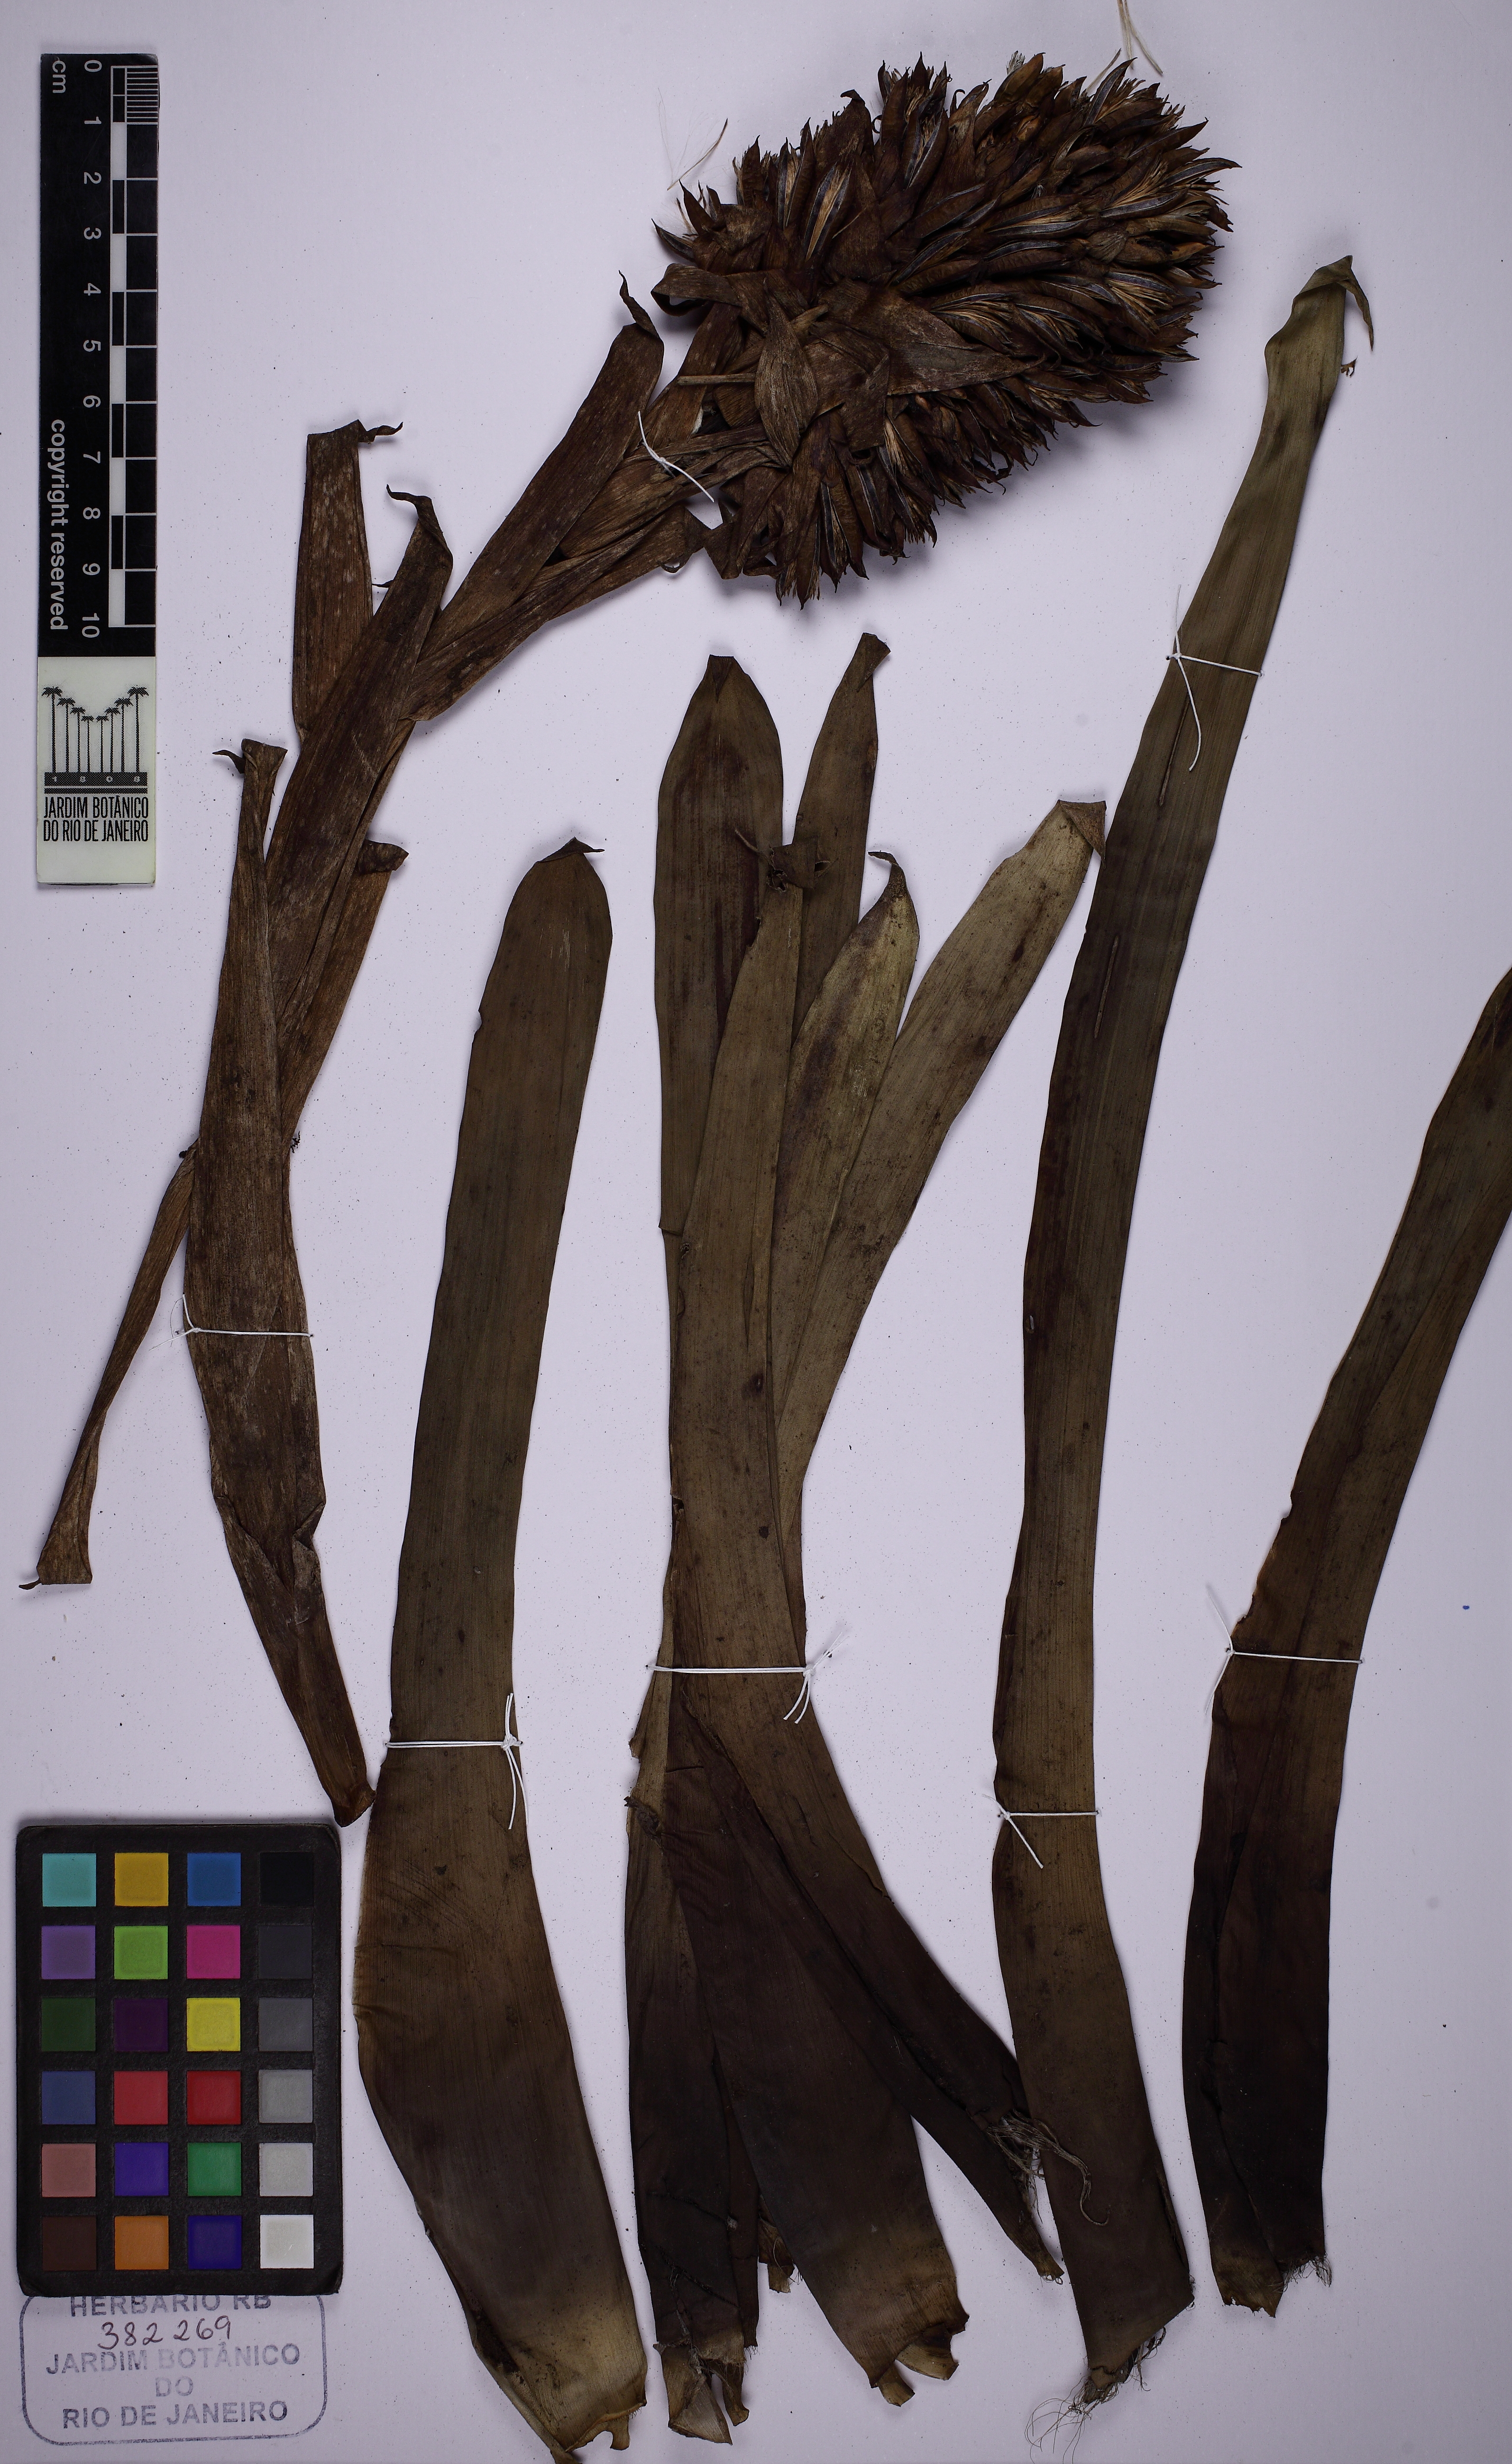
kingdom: Plantae
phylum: Tracheophyta
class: Liliopsida
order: Poales
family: Bromeliaceae
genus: Guzmania
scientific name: Guzmania
